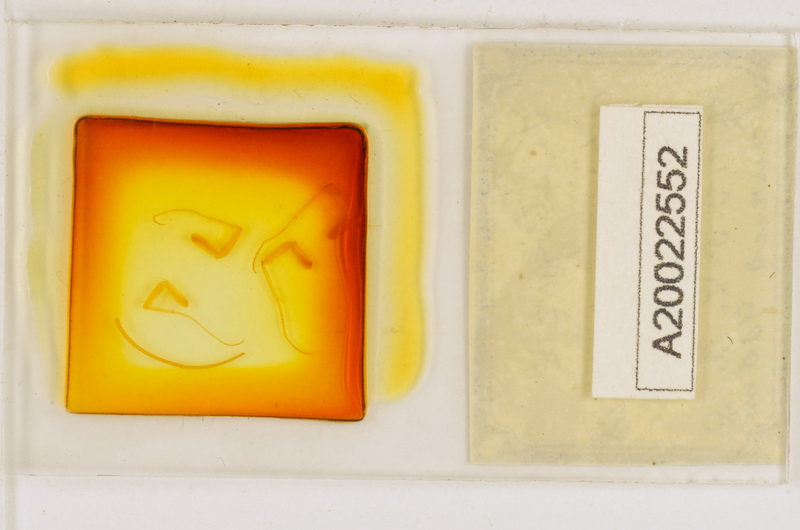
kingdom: Animalia
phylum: Arthropoda
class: Chilopoda
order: Scutigeromorpha
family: Scutigeridae
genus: Scutigera
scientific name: Scutigera coleoptrata
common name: House centipede
